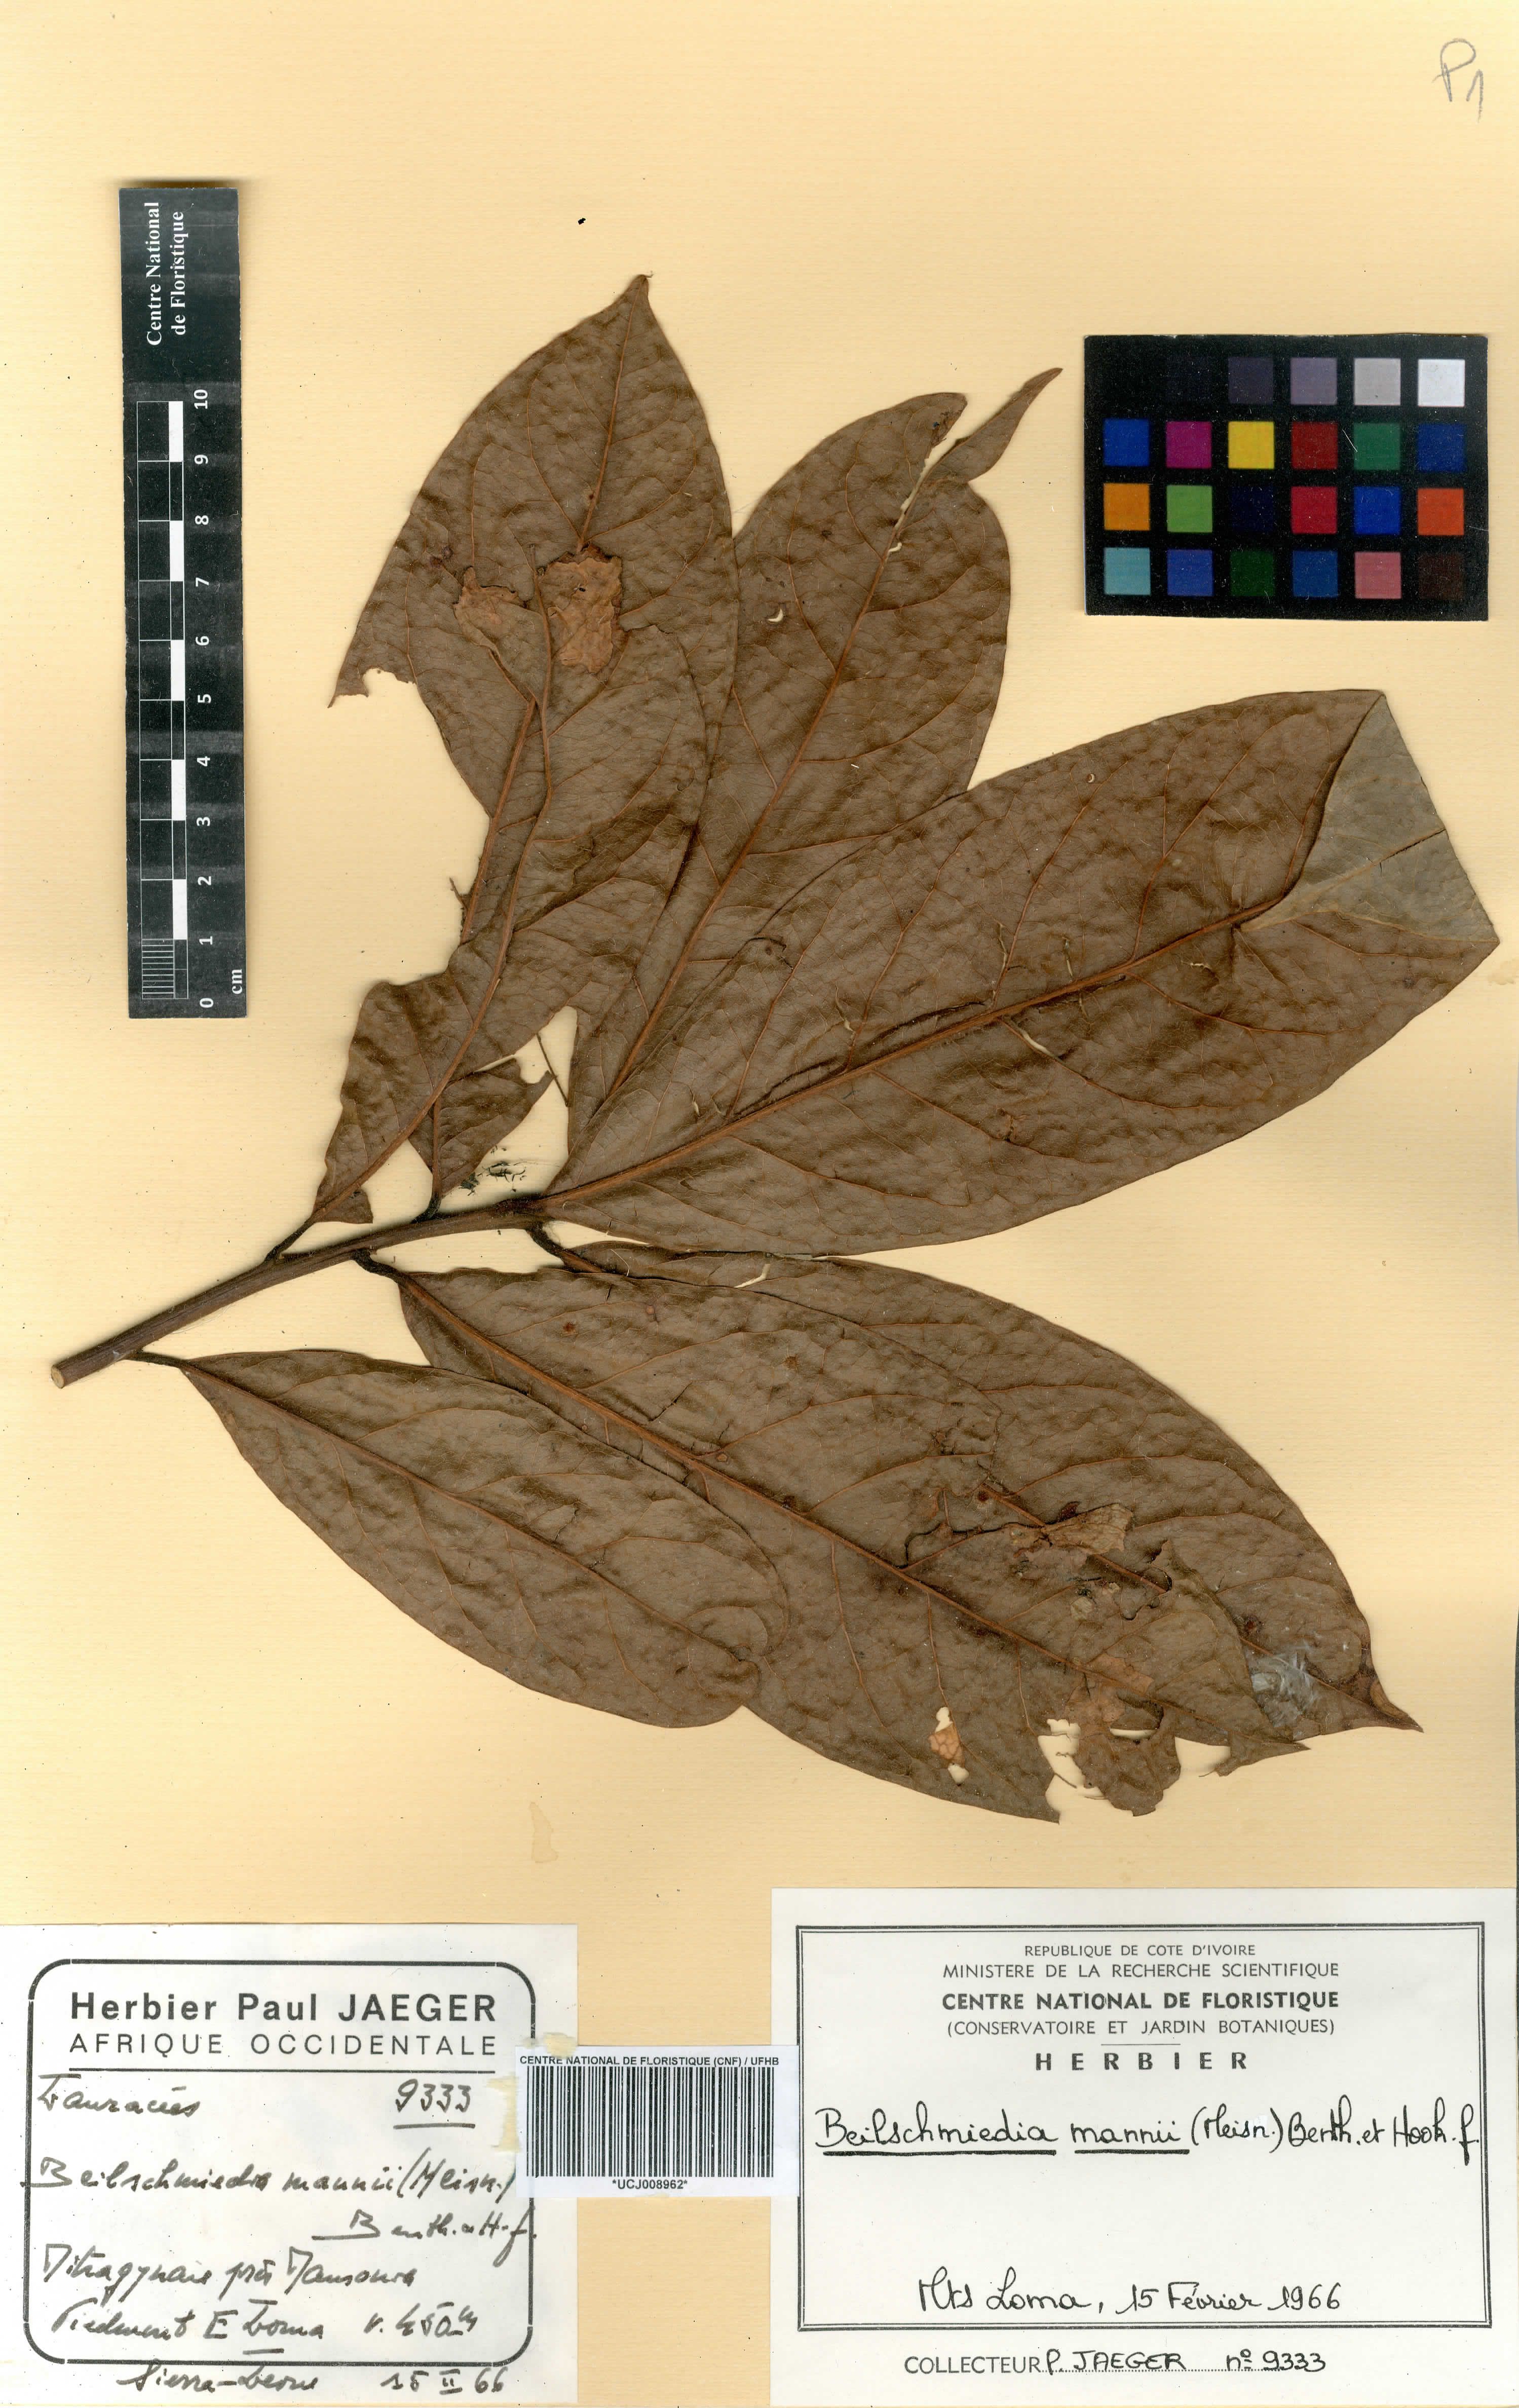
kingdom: Plantae
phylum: Tracheophyta
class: Magnoliopsida
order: Laurales
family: Lauraceae
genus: Beilschmiedia
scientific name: Beilschmiedia mannii
